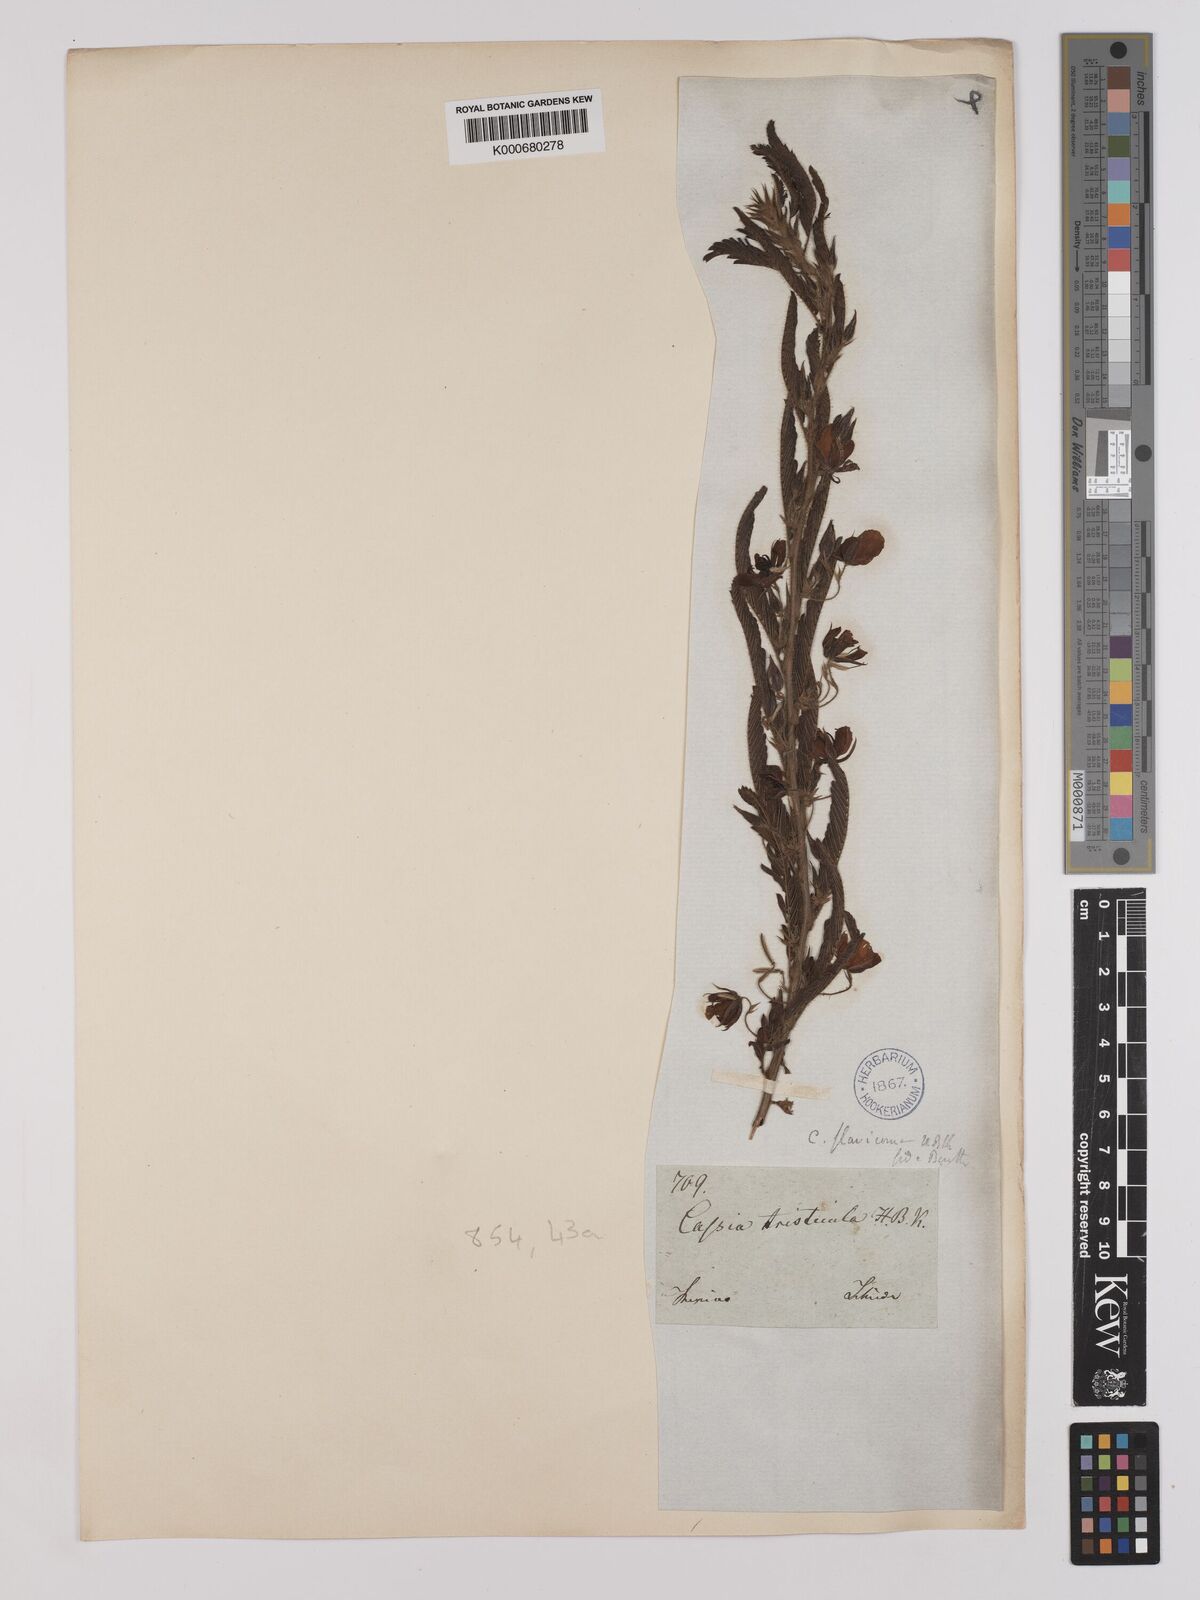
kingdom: Plantae
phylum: Tracheophyta
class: Magnoliopsida
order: Fabales
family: Fabaceae
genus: Chamaecrista
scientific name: Chamaecrista glandulosa
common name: Wild peas
